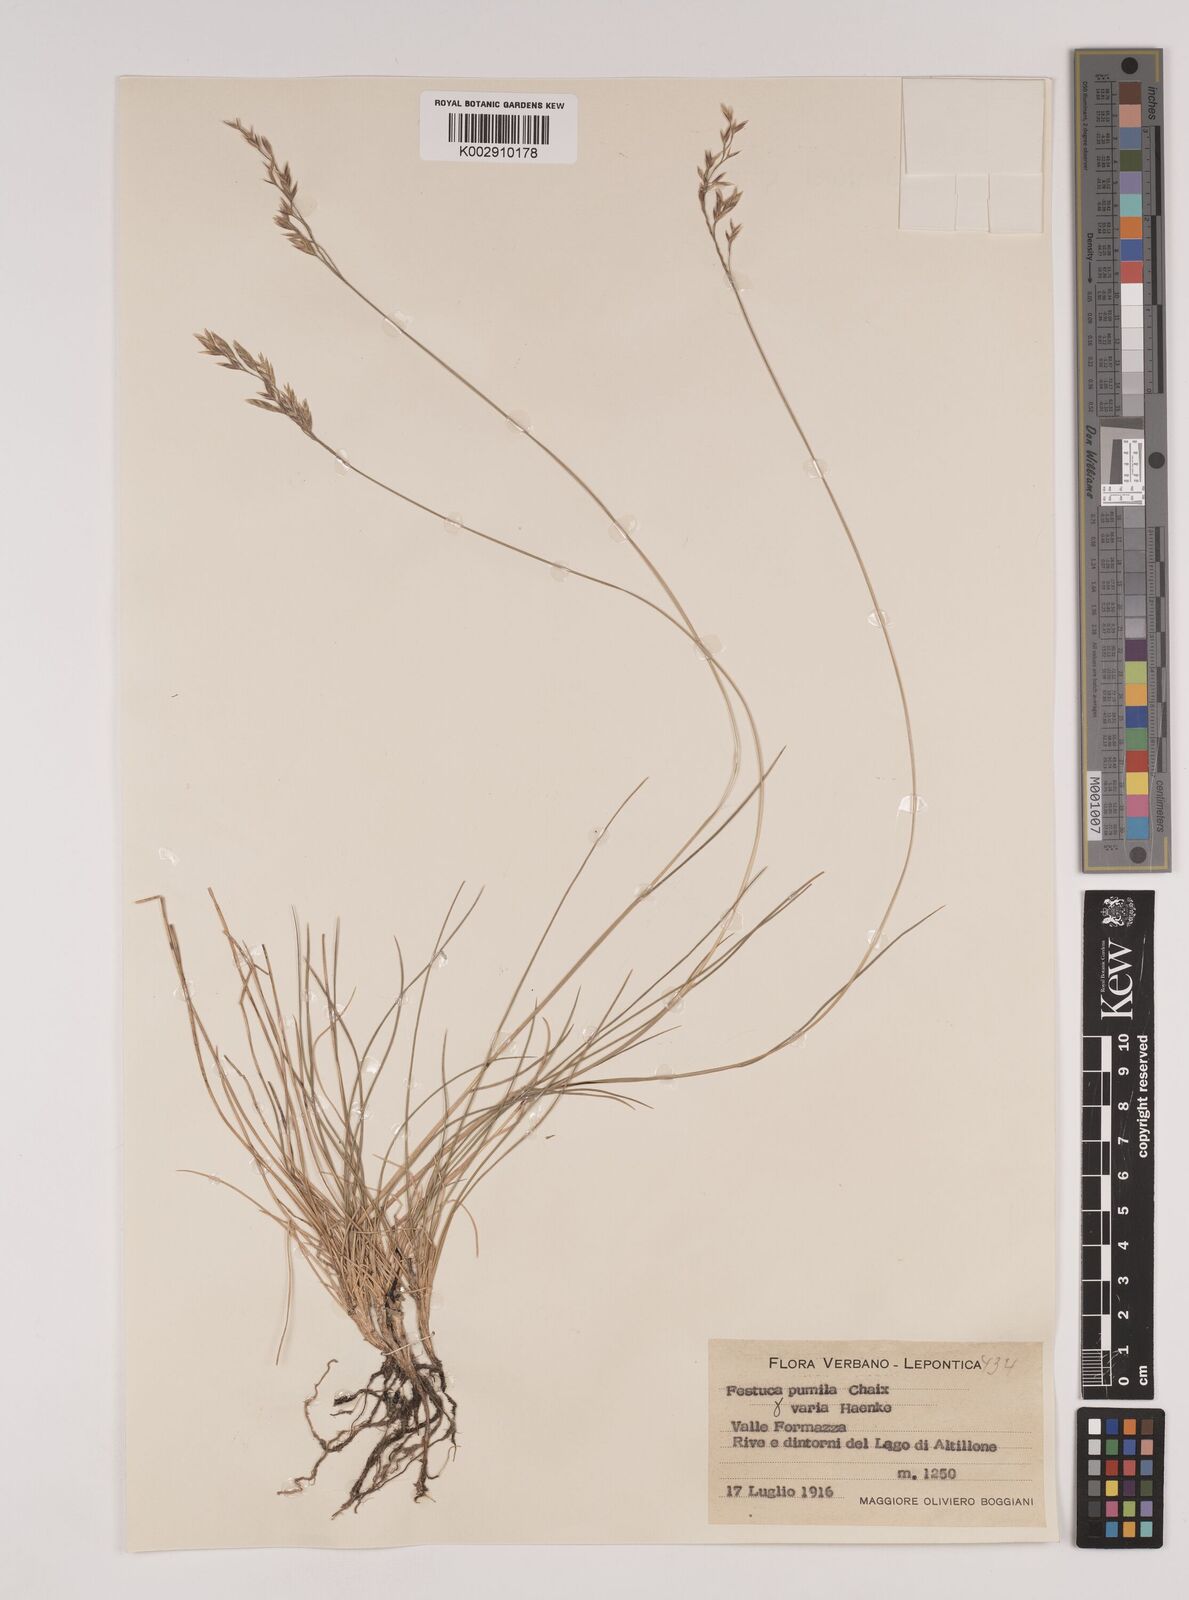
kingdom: Plantae
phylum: Tracheophyta
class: Liliopsida
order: Poales
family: Poaceae
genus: Festuca
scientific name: Festuca quadriflora
